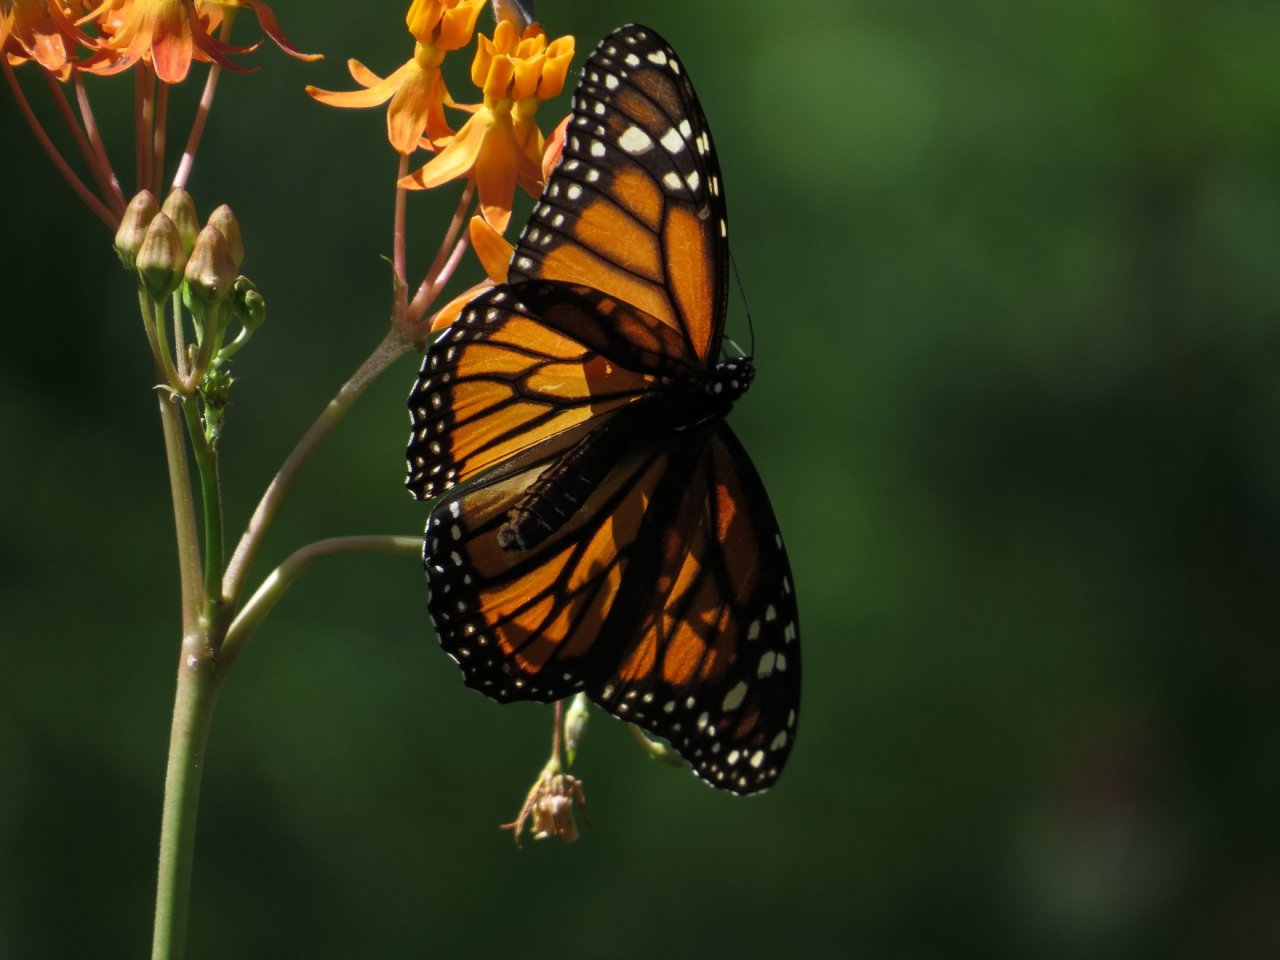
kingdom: Animalia
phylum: Arthropoda
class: Insecta
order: Lepidoptera
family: Nymphalidae
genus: Danaus
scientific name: Danaus plexippus
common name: Monarch
